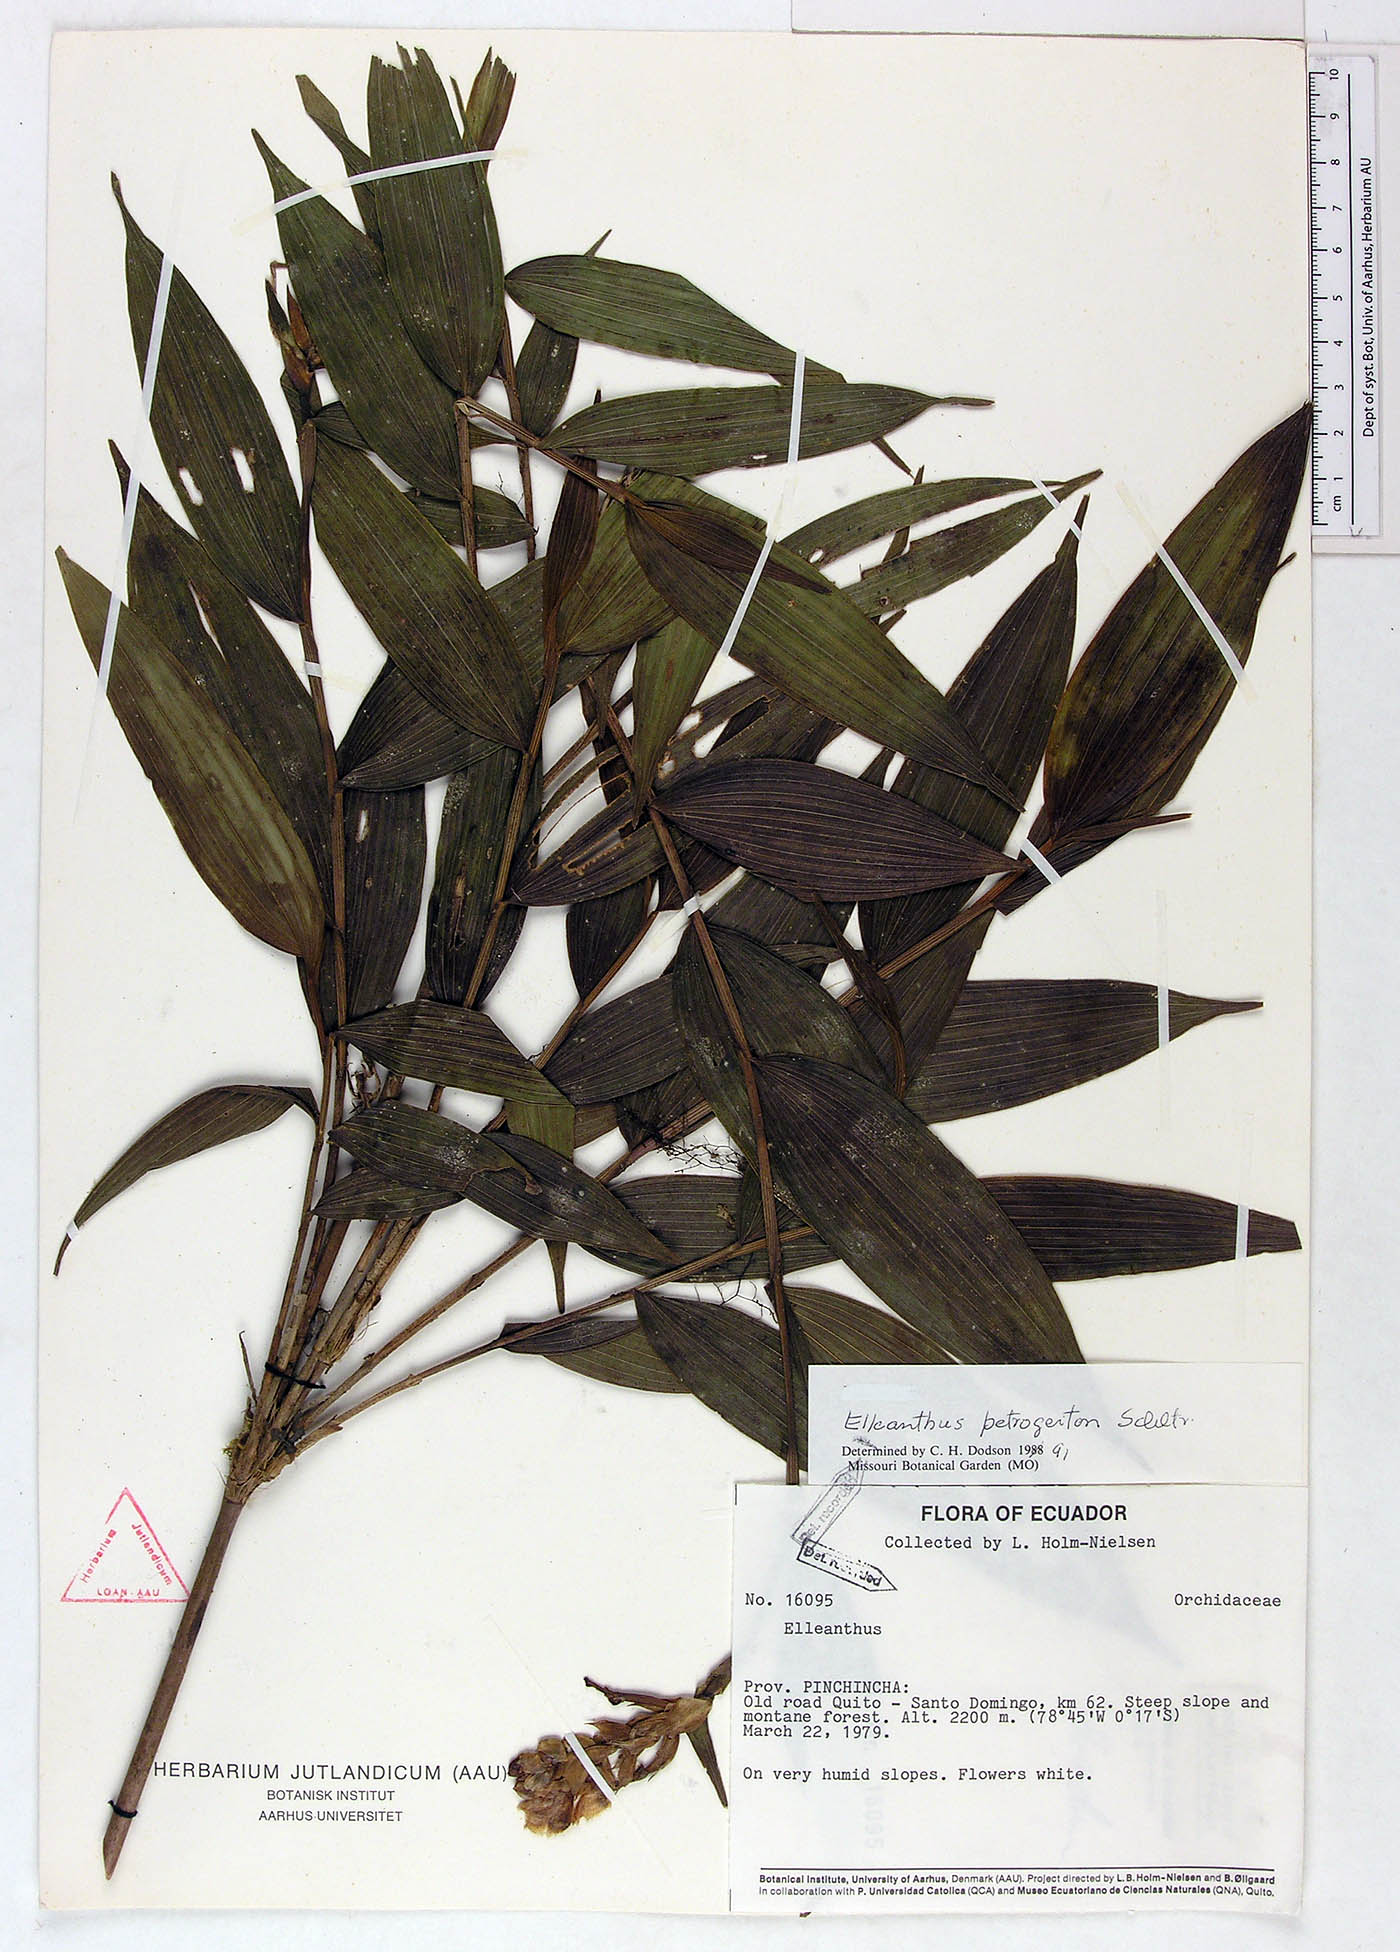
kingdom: Plantae
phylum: Tracheophyta
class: Liliopsida
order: Asparagales
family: Orchidaceae
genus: Elleanthus
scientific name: Elleanthus petrogeiton
